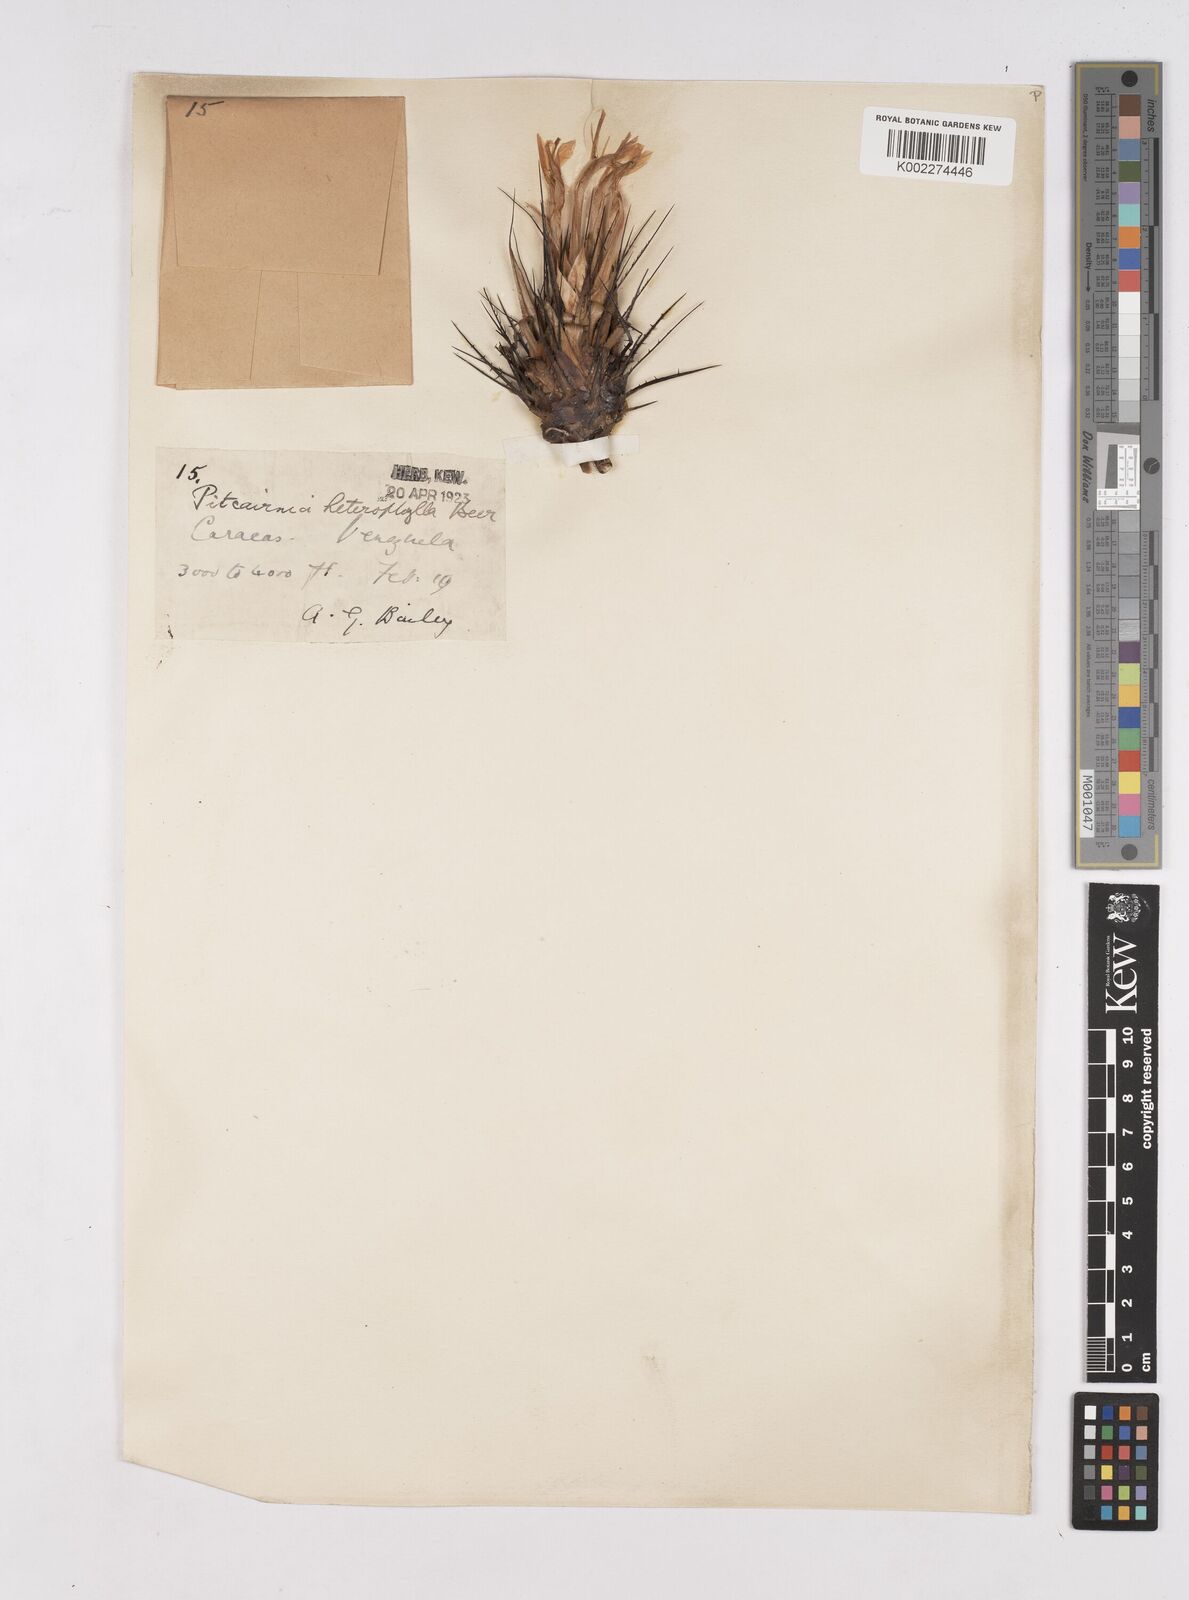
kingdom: Plantae
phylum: Tracheophyta
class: Liliopsida
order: Poales
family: Bromeliaceae
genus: Pitcairnia
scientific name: Pitcairnia heterophylla
